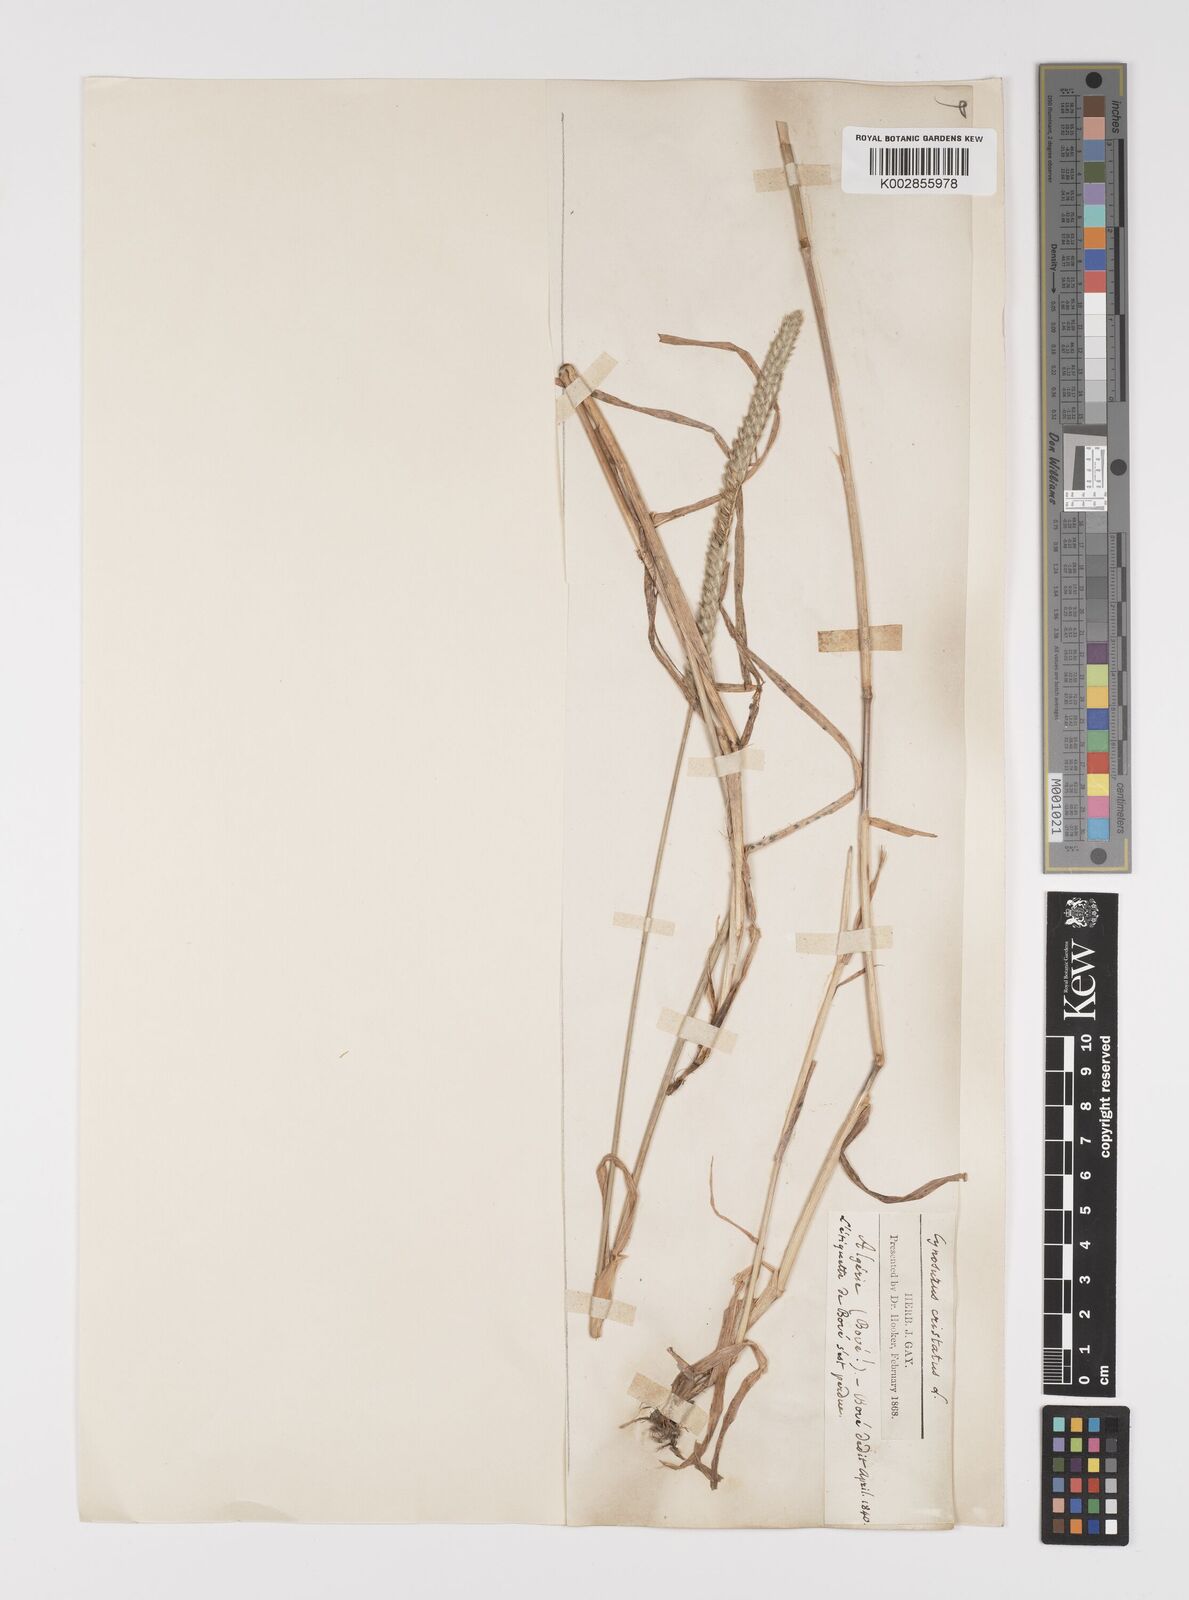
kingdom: Plantae
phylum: Tracheophyta
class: Liliopsida
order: Poales
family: Poaceae
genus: Cynosurus
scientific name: Cynosurus cristatus
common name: Crested dog's-tail
